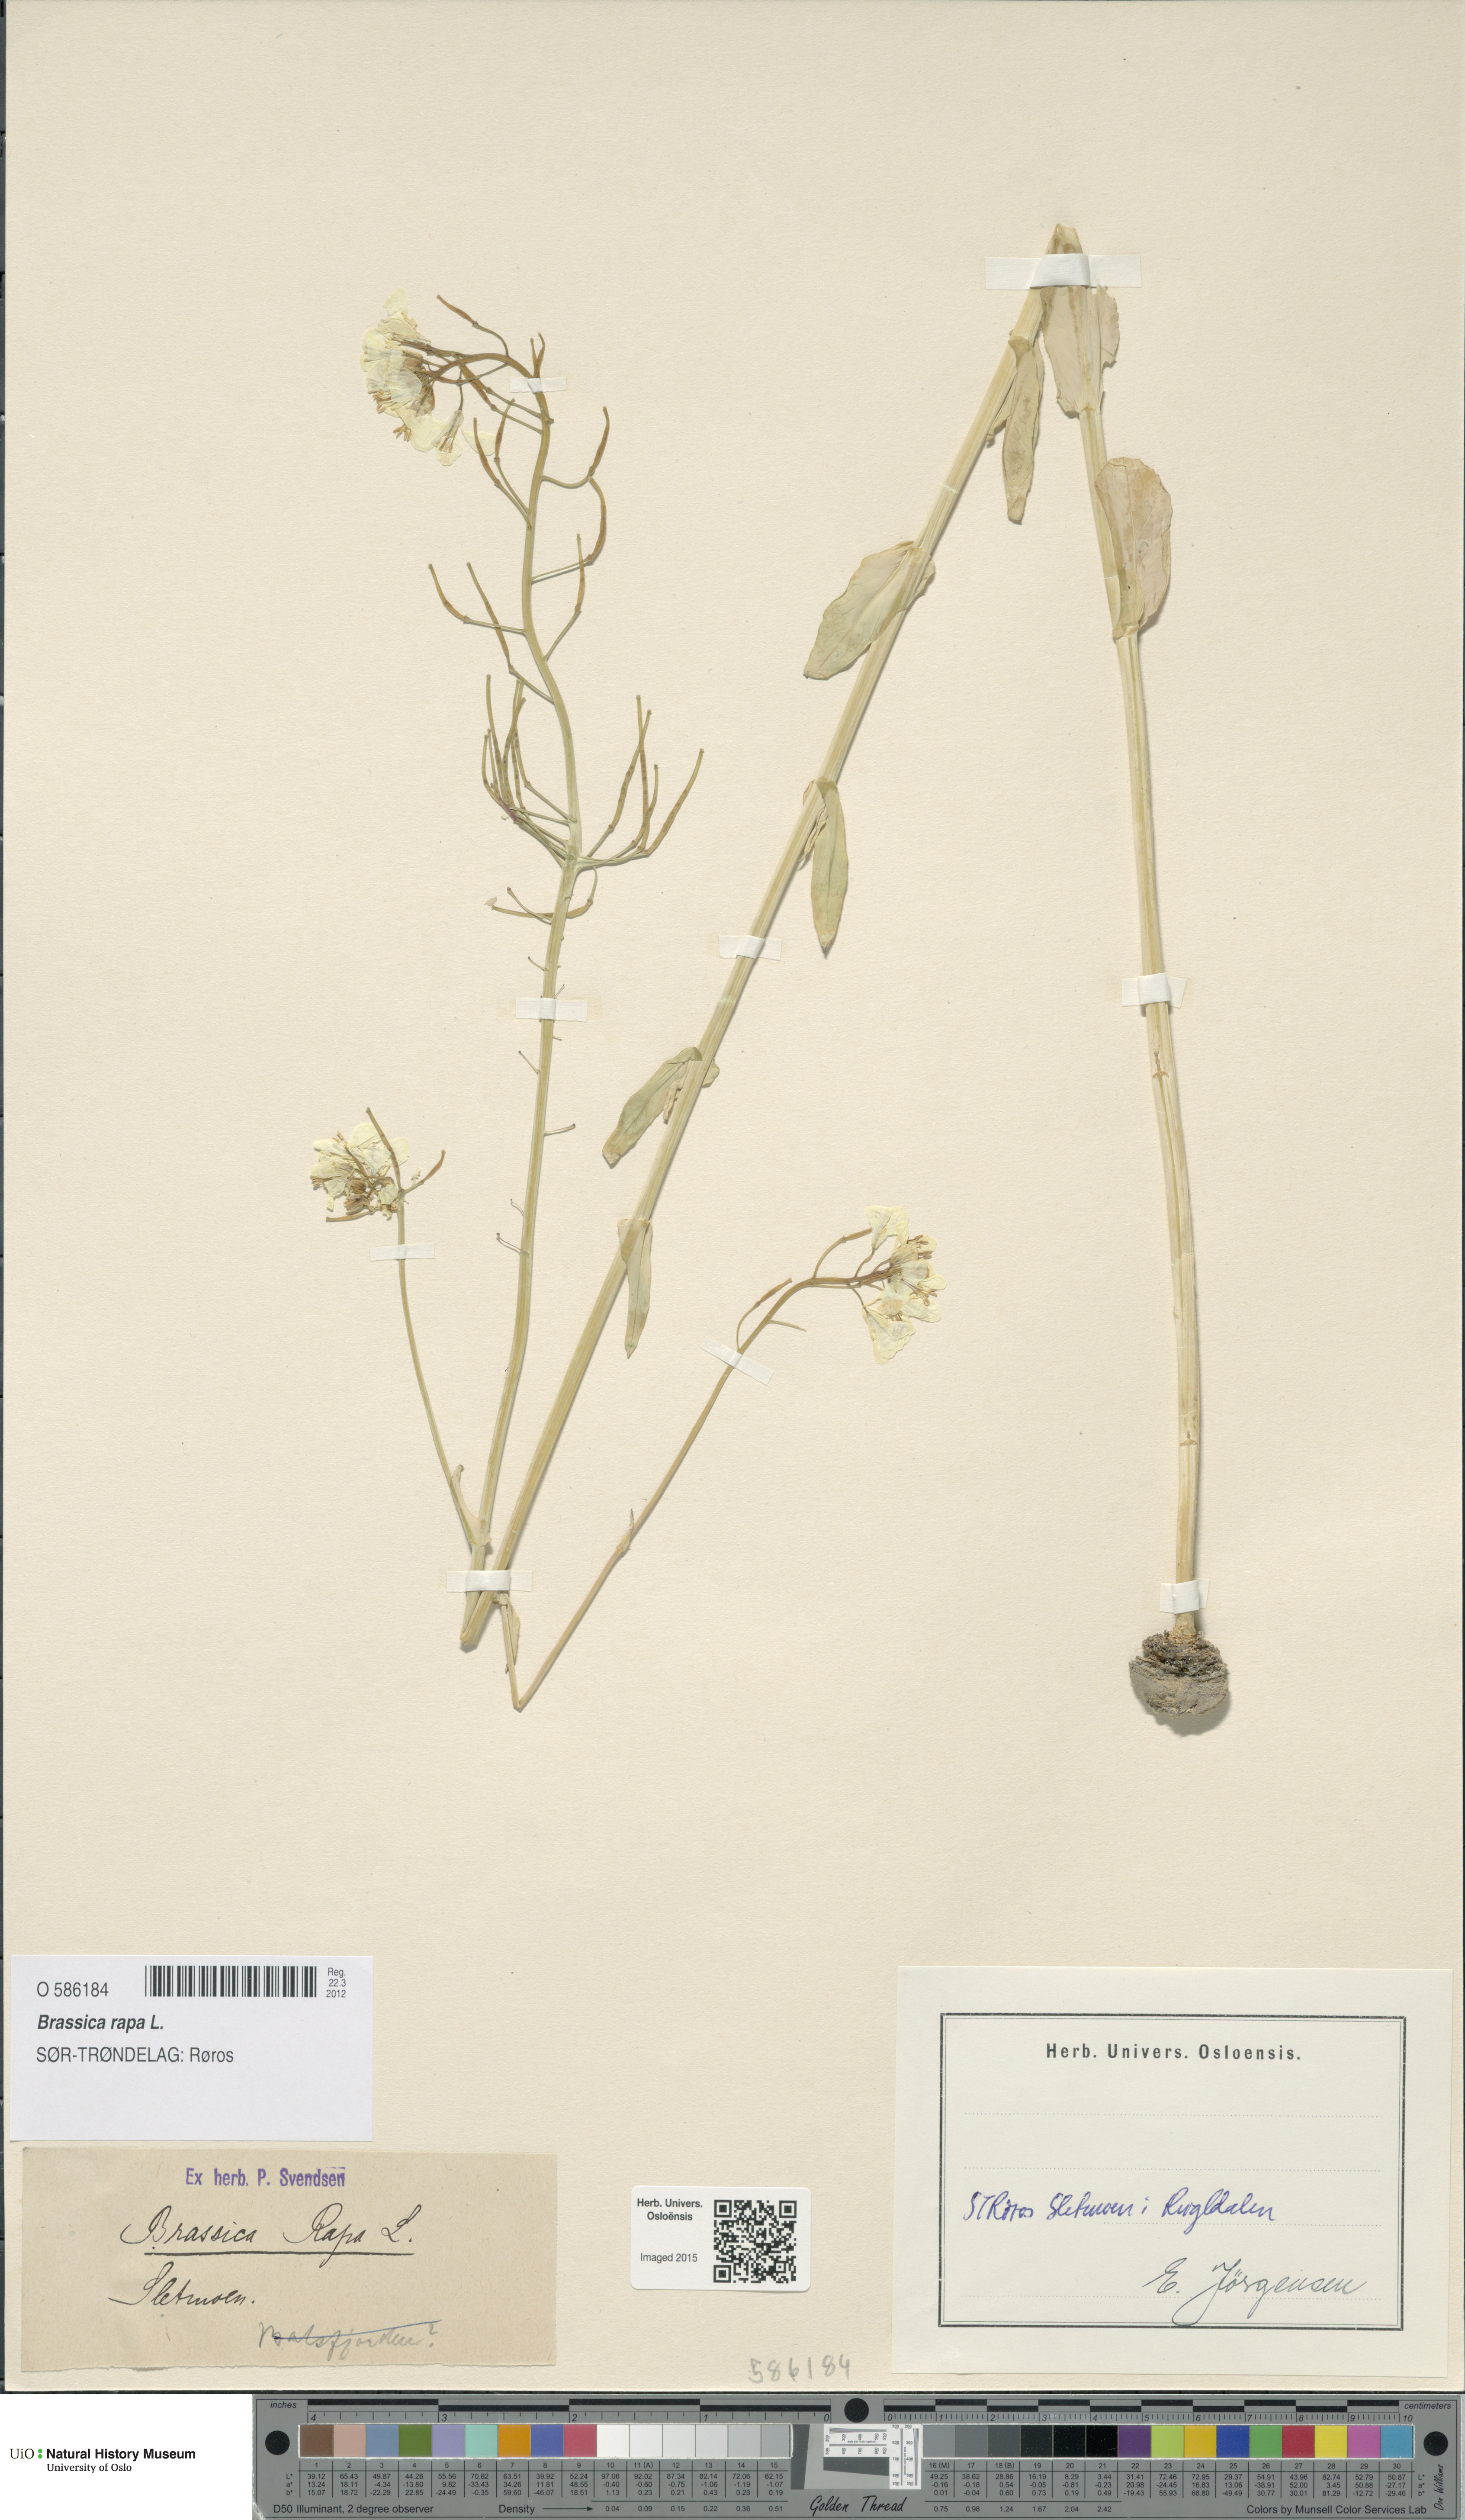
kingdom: Plantae
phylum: Tracheophyta
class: Magnoliopsida
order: Brassicales
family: Brassicaceae
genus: Brassica
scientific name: Brassica rapa
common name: Field mustard
